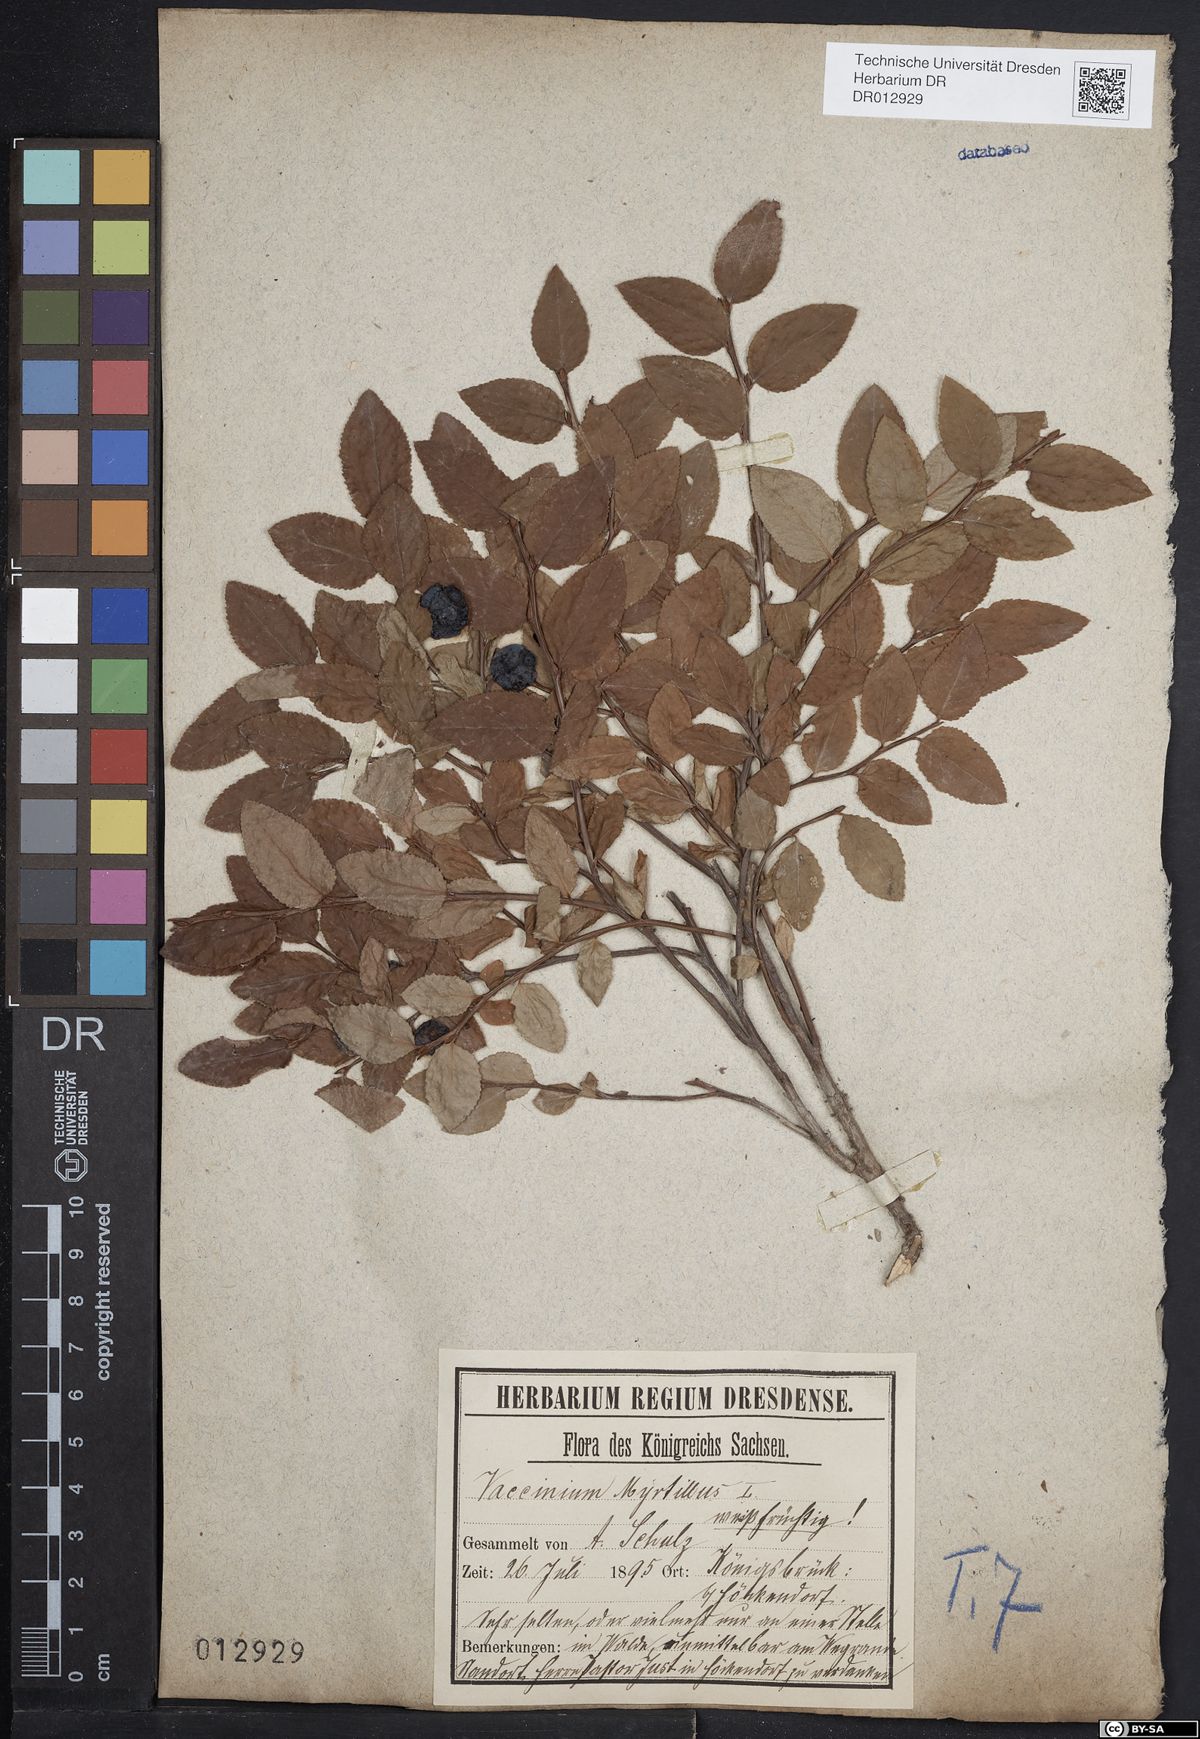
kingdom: Plantae
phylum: Tracheophyta
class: Magnoliopsida
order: Ericales
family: Ericaceae
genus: Vaccinium
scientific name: Vaccinium myrtillus
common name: Bilberry
